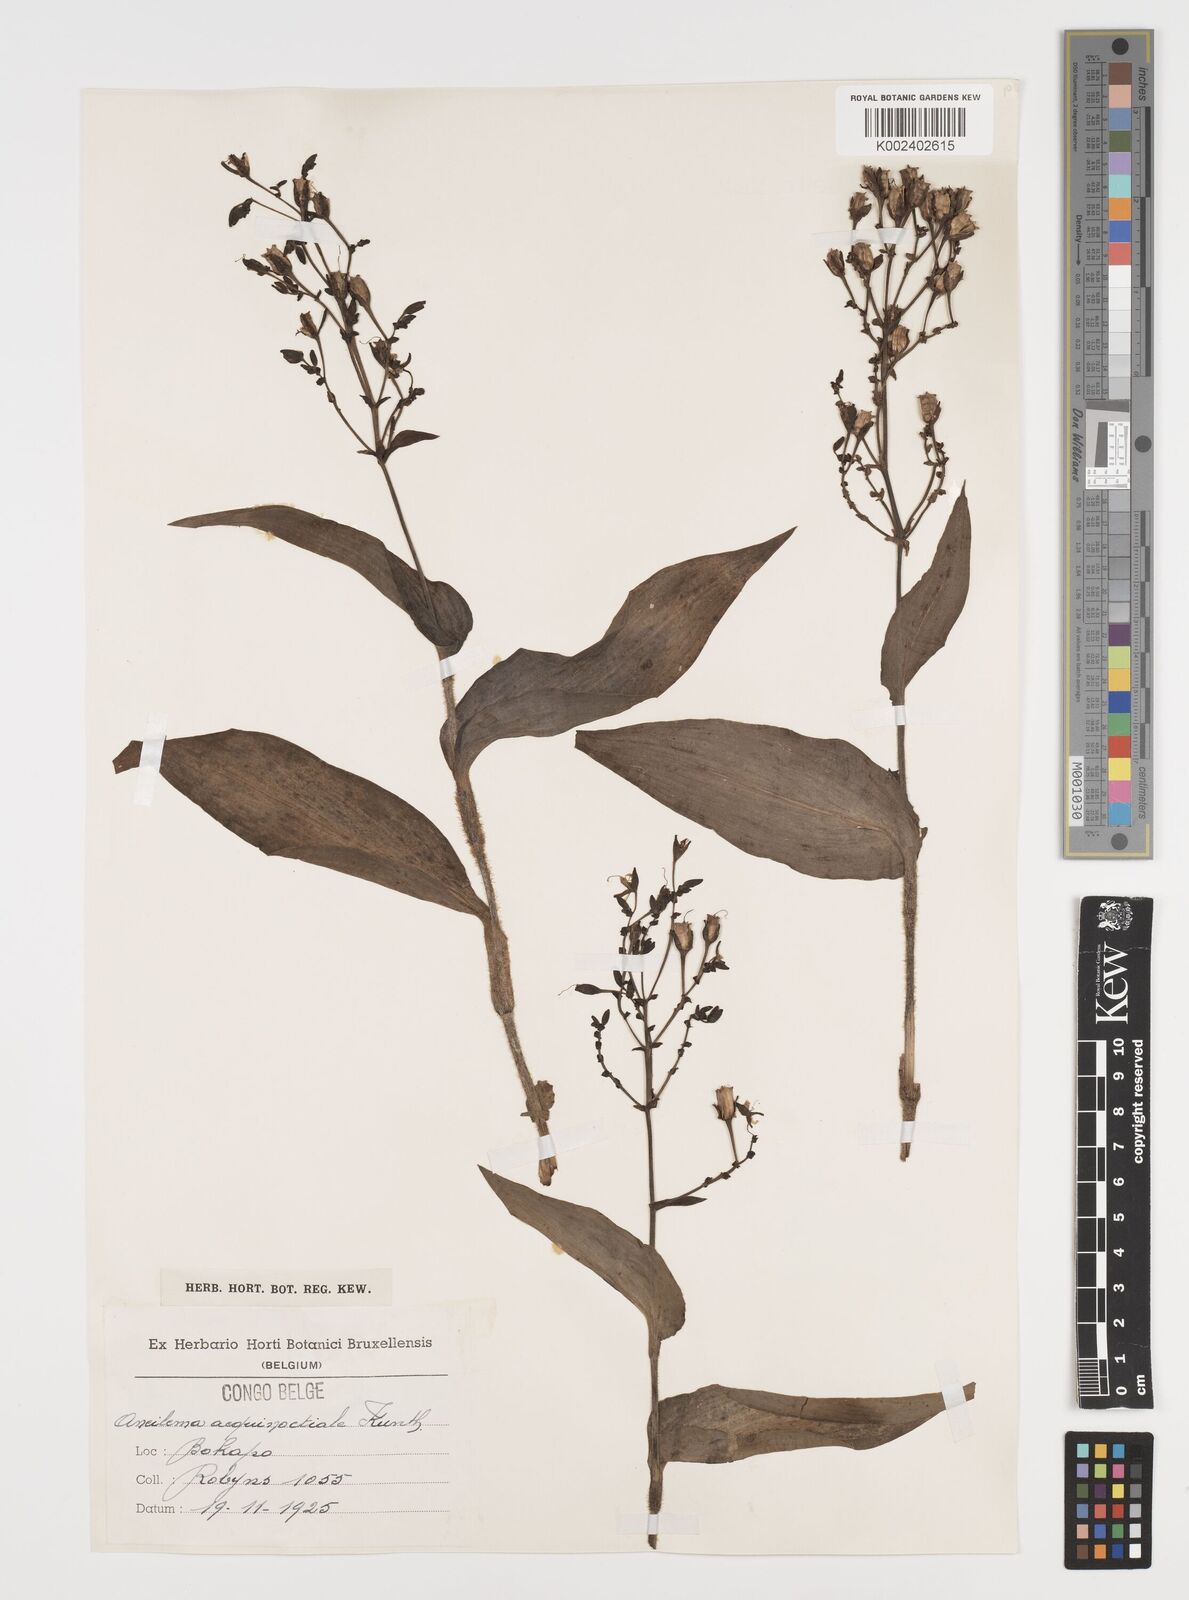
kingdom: Plantae
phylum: Tracheophyta
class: Liliopsida
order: Commelinales
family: Commelinaceae
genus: Aneilema
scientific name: Aneilema aequinoctiale
